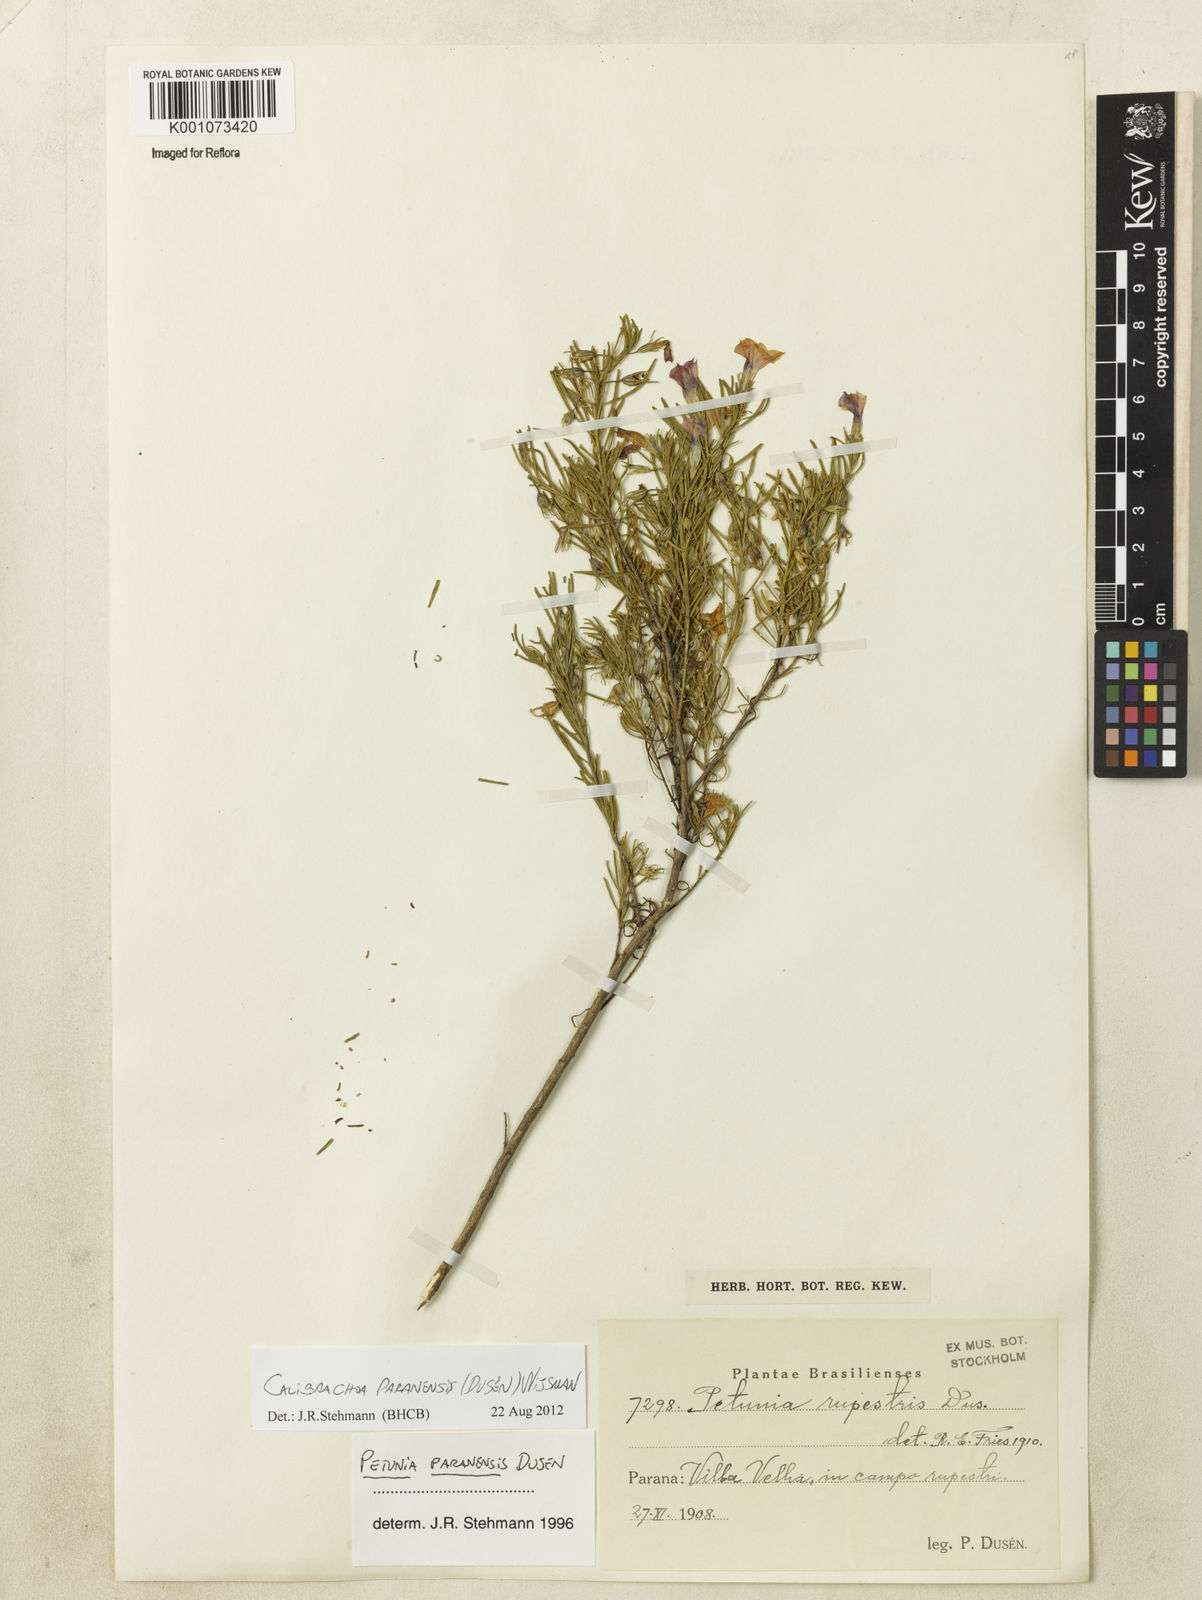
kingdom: Plantae
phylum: Tracheophyta
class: Magnoliopsida
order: Solanales
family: Solanaceae
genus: Calibrachoa
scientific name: Calibrachoa
